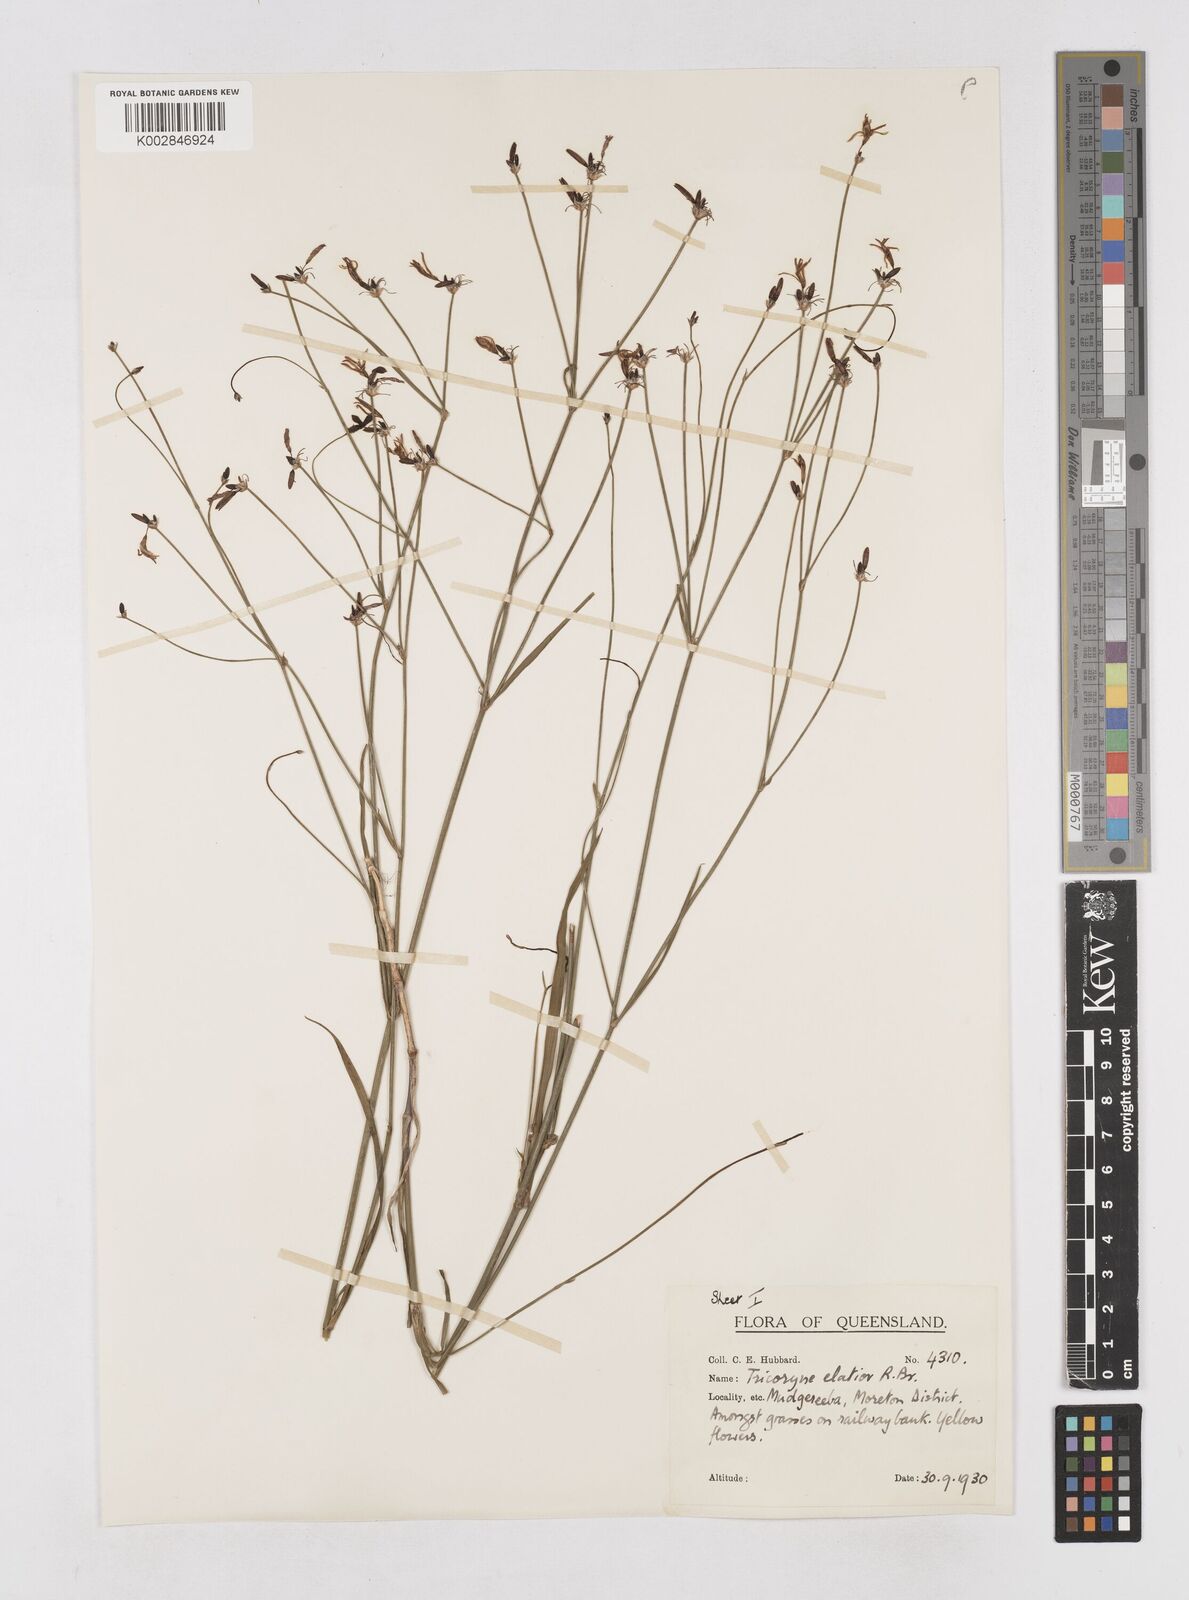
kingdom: Plantae
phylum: Tracheophyta
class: Liliopsida
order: Asparagales
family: Asphodelaceae
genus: Tricoryne
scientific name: Tricoryne elatior
